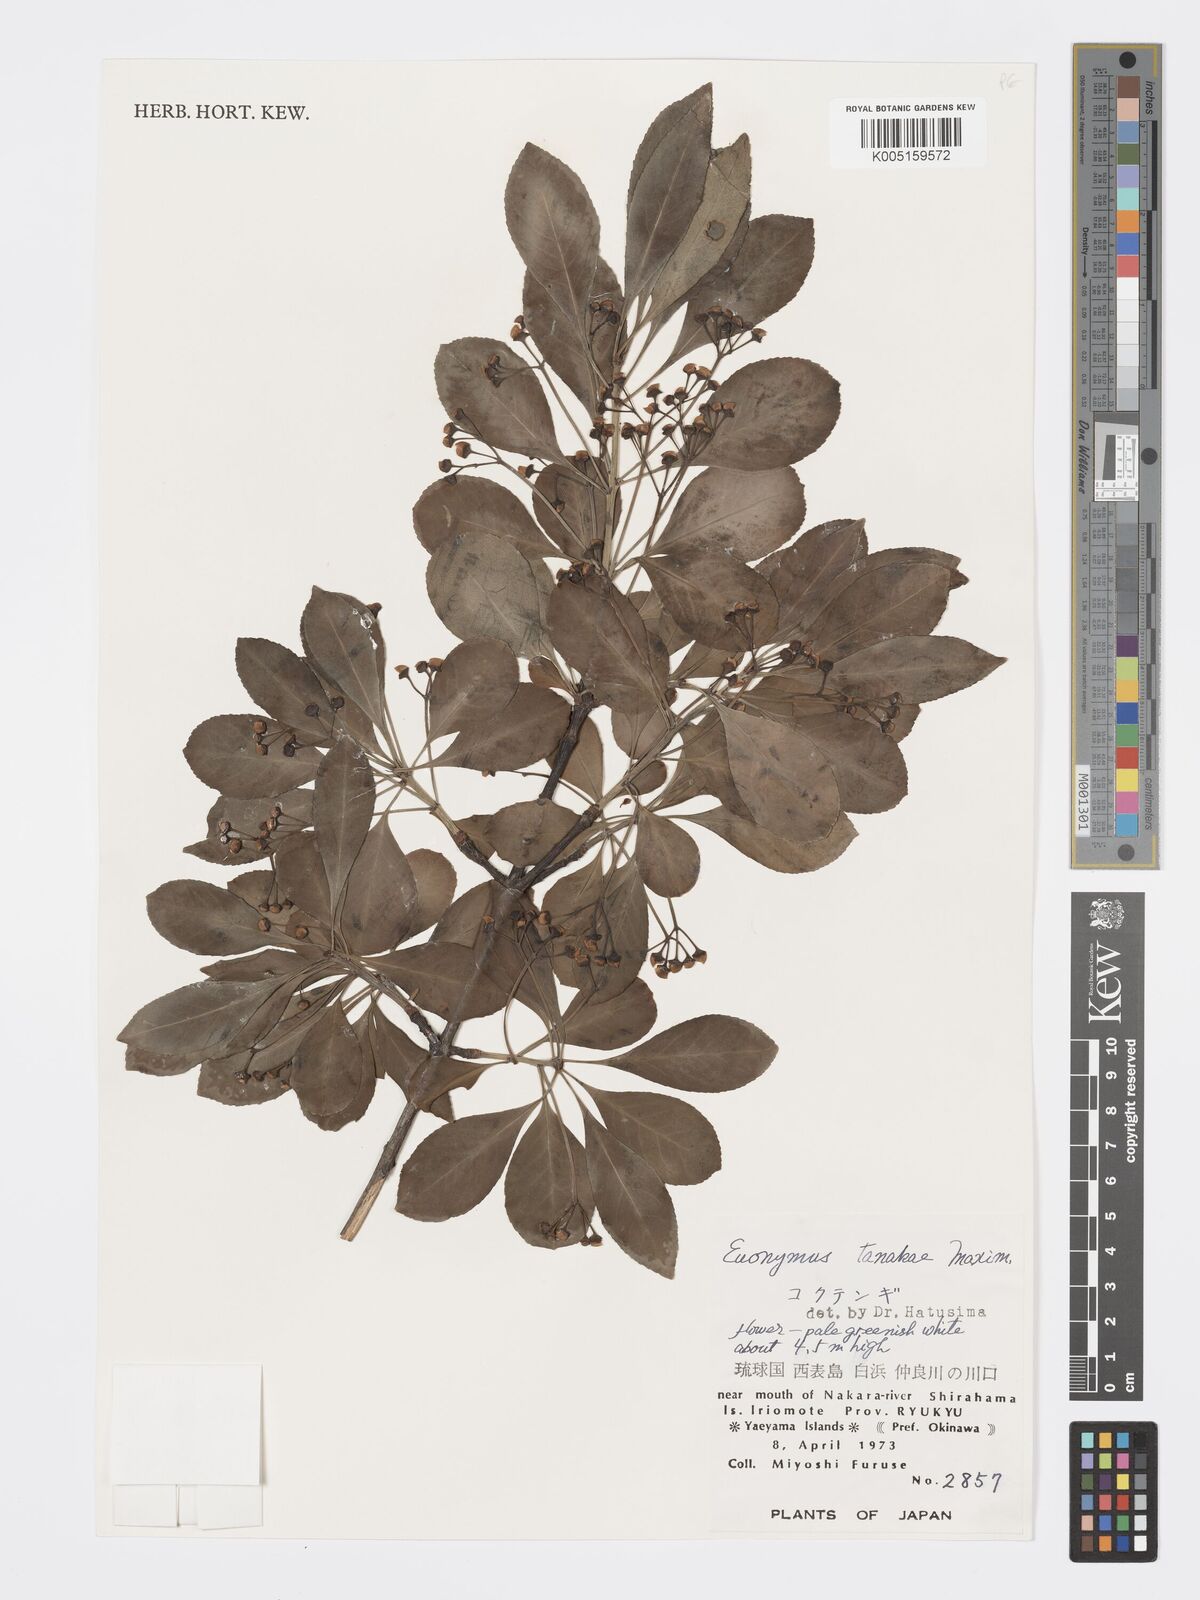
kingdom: Plantae
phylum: Tracheophyta
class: Magnoliopsida
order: Celastrales
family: Celastraceae
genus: Euonymus
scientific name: Euonymus carnosus
